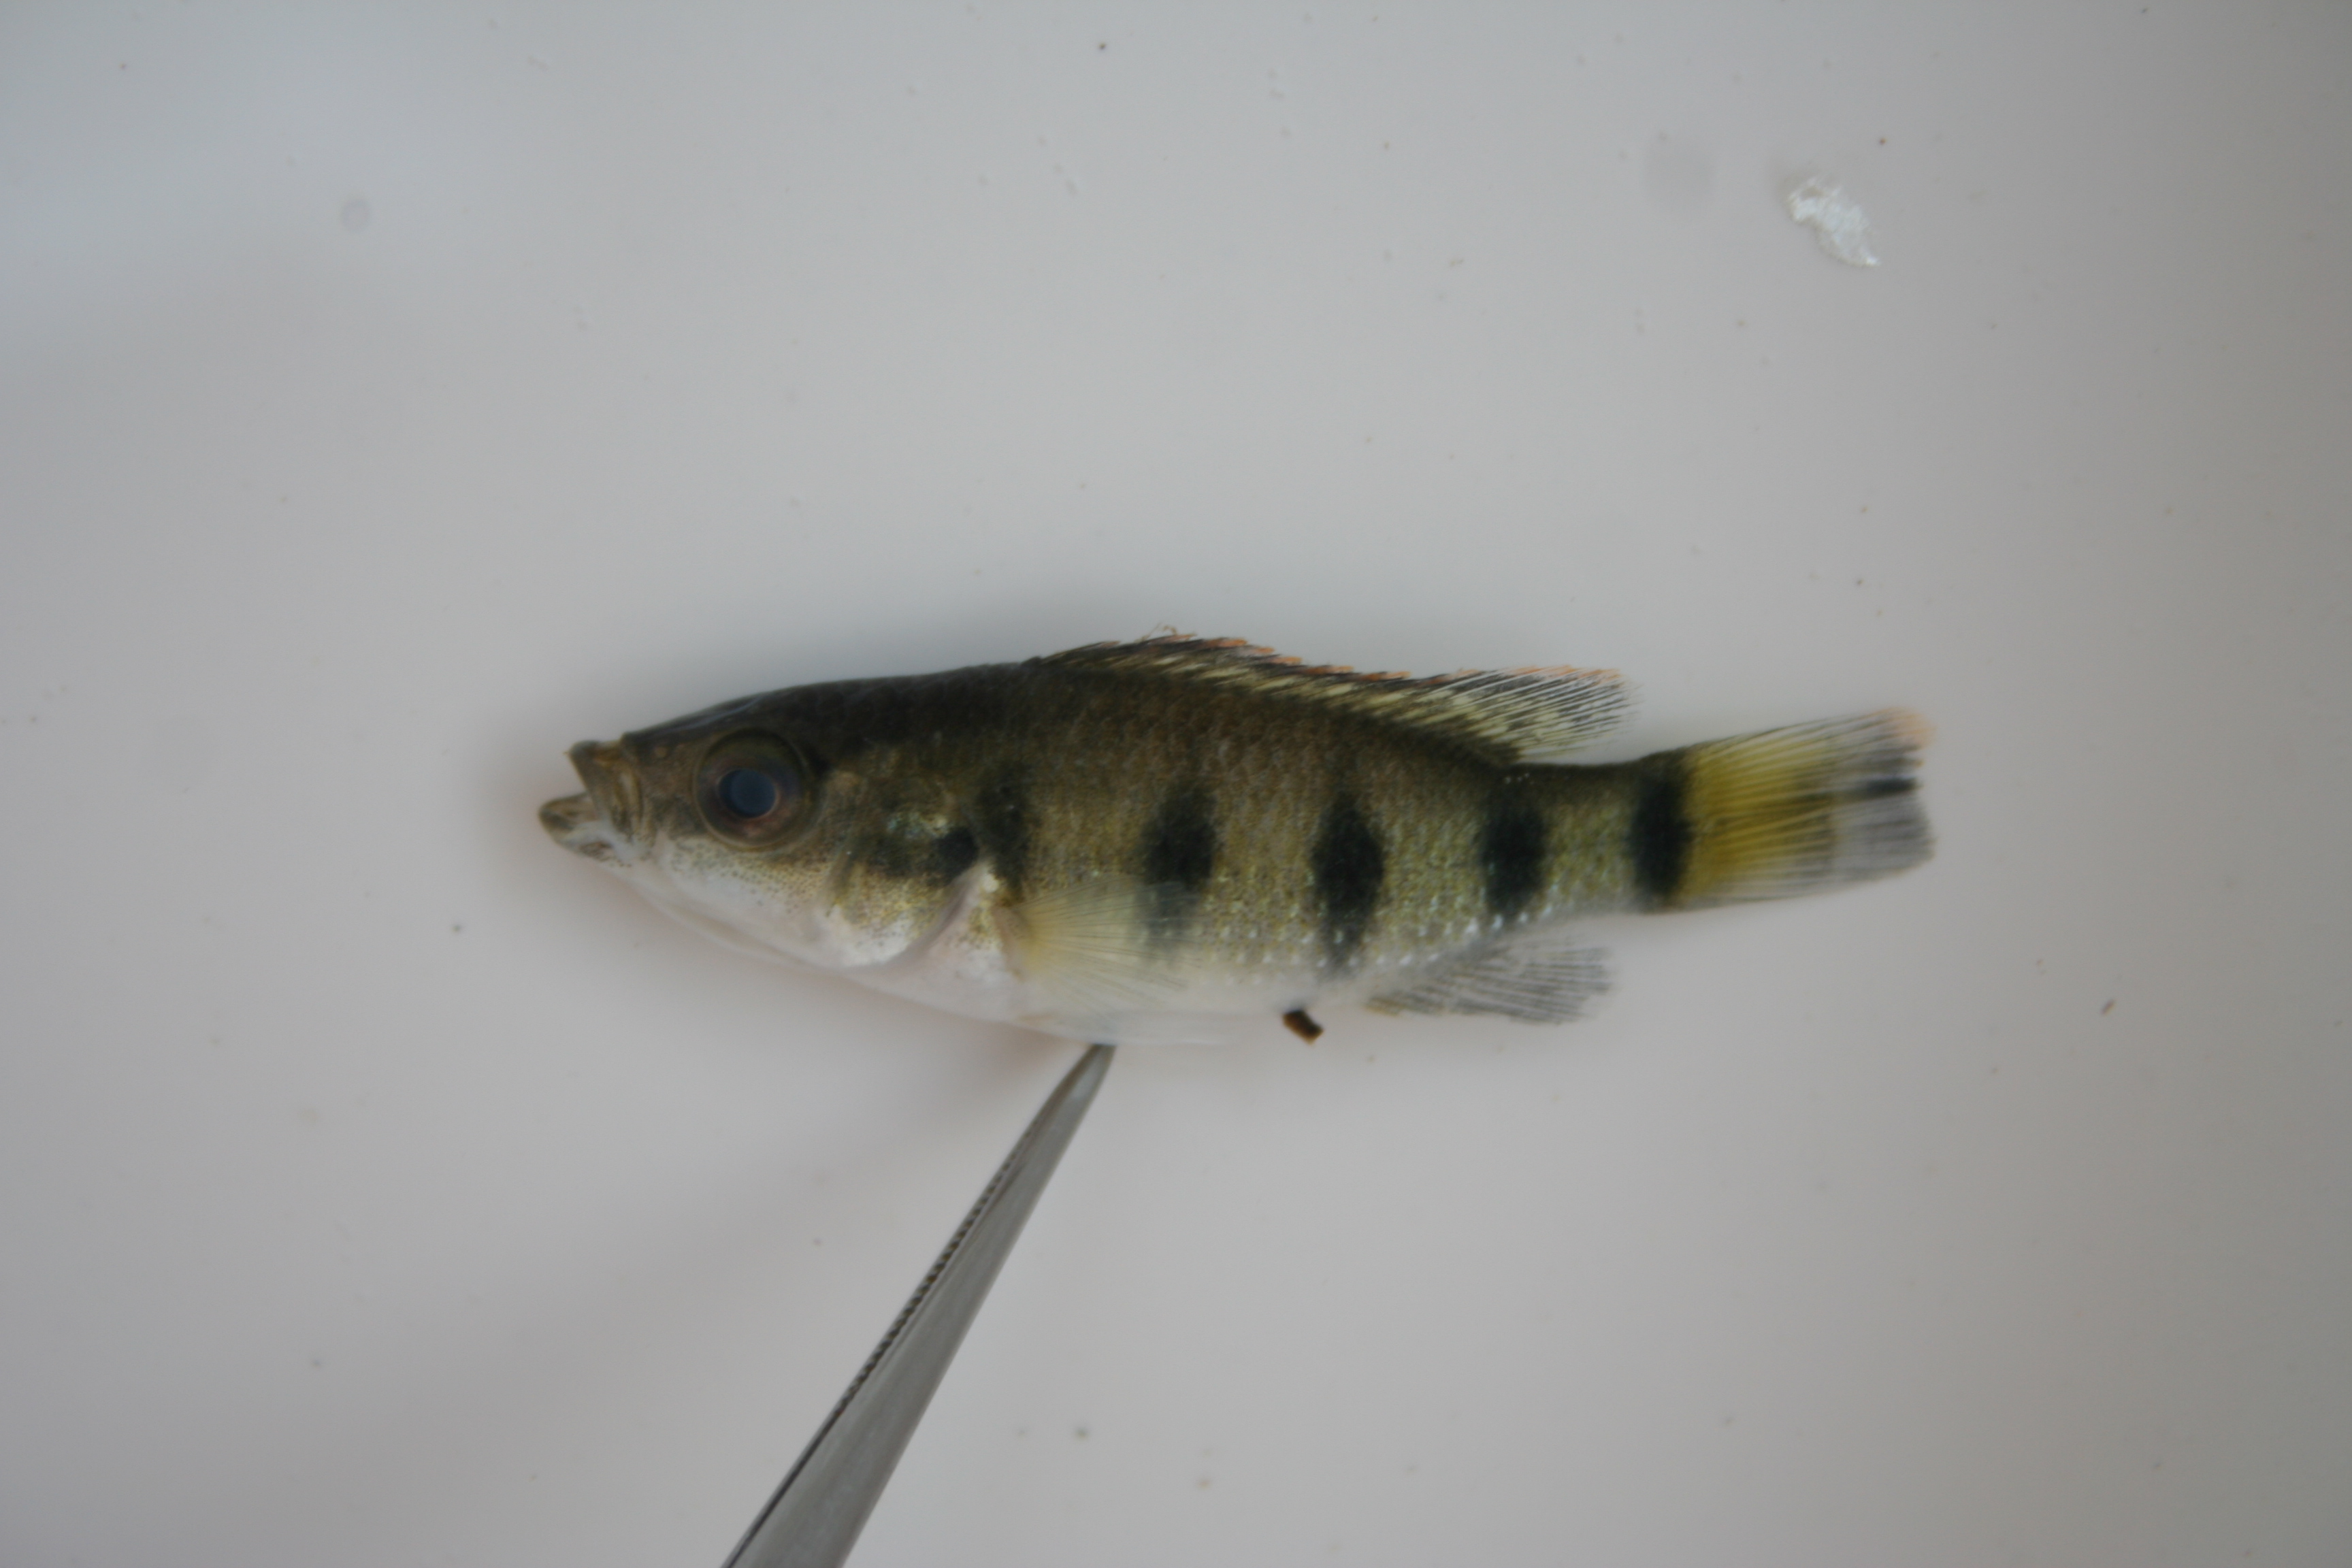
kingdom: Animalia
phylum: Chordata
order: Perciformes
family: Cichlidae
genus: Hemichromis
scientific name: Hemichromis angolensis
